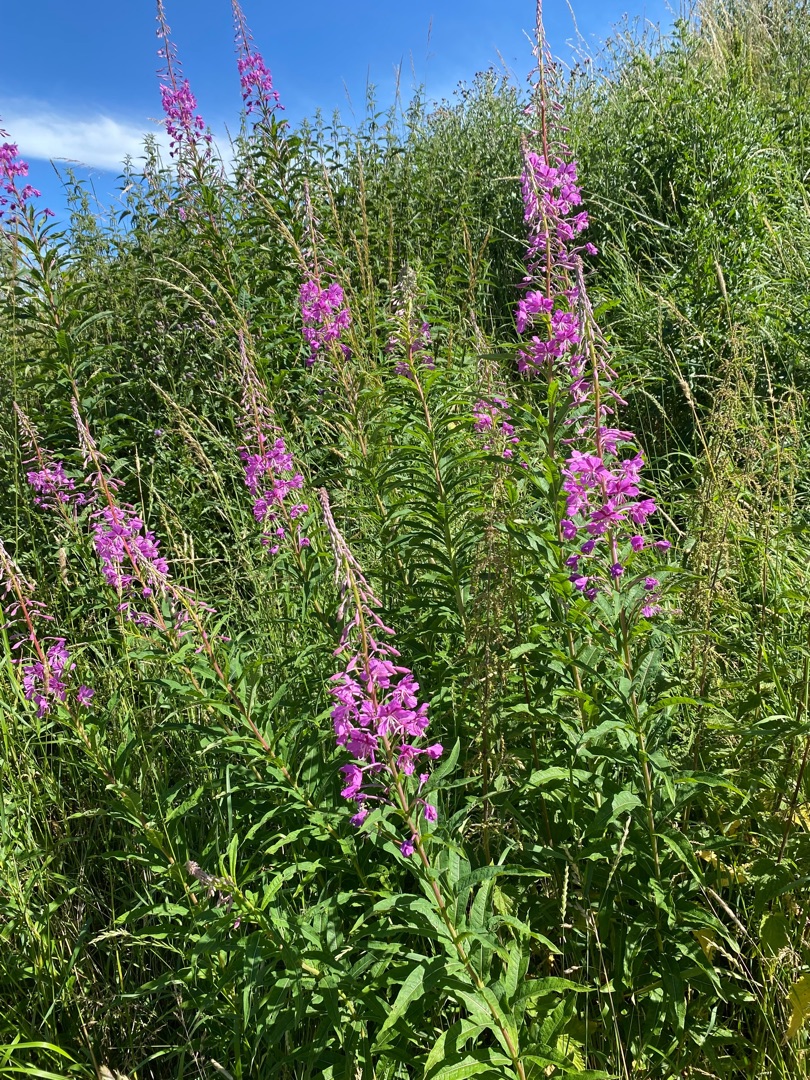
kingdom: Plantae
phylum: Tracheophyta
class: Magnoliopsida
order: Myrtales
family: Onagraceae
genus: Chamaenerion
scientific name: Chamaenerion angustifolium
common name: Gederams
